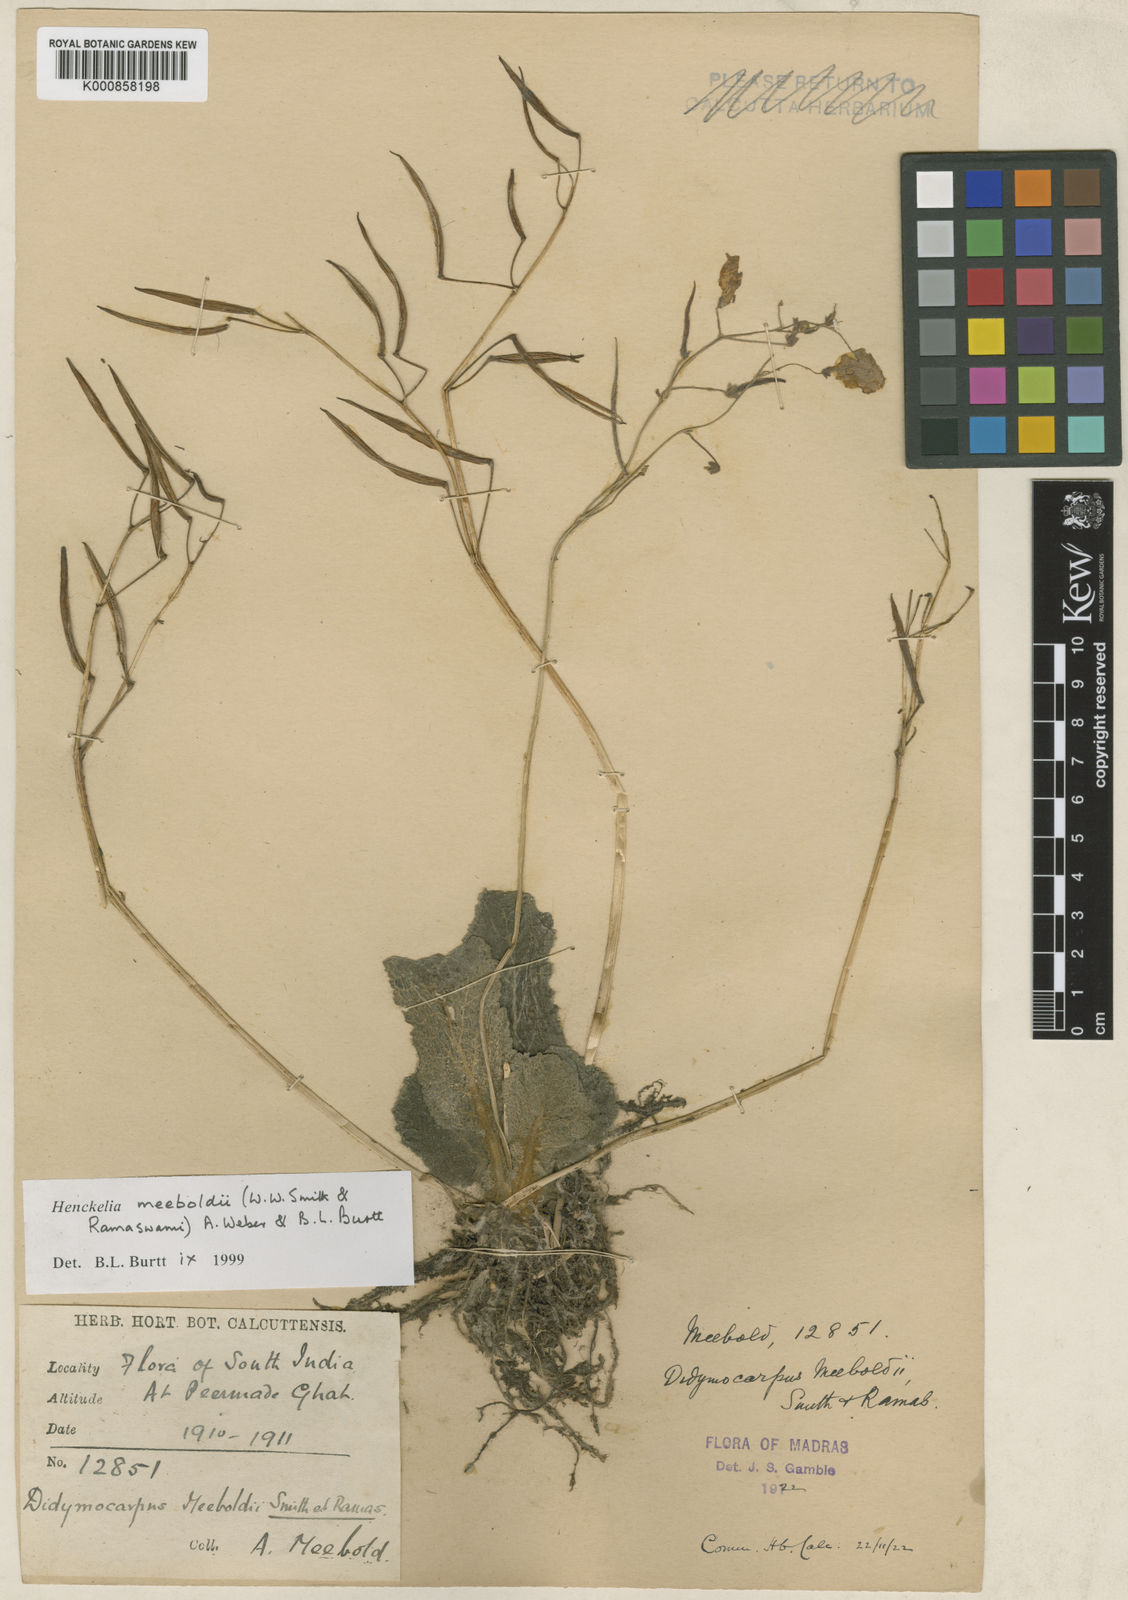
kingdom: Plantae
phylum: Tracheophyta
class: Magnoliopsida
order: Lamiales
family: Gesneriaceae
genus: Henckelia
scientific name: Henckelia meeboldii
